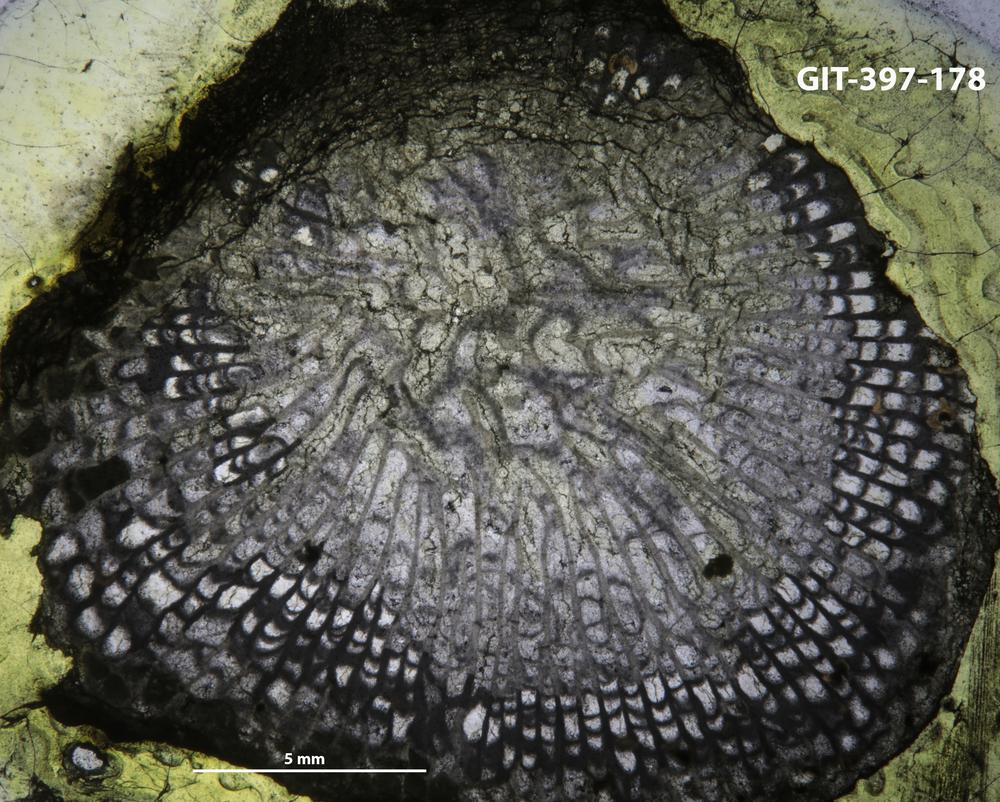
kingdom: Animalia
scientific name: Animalia
